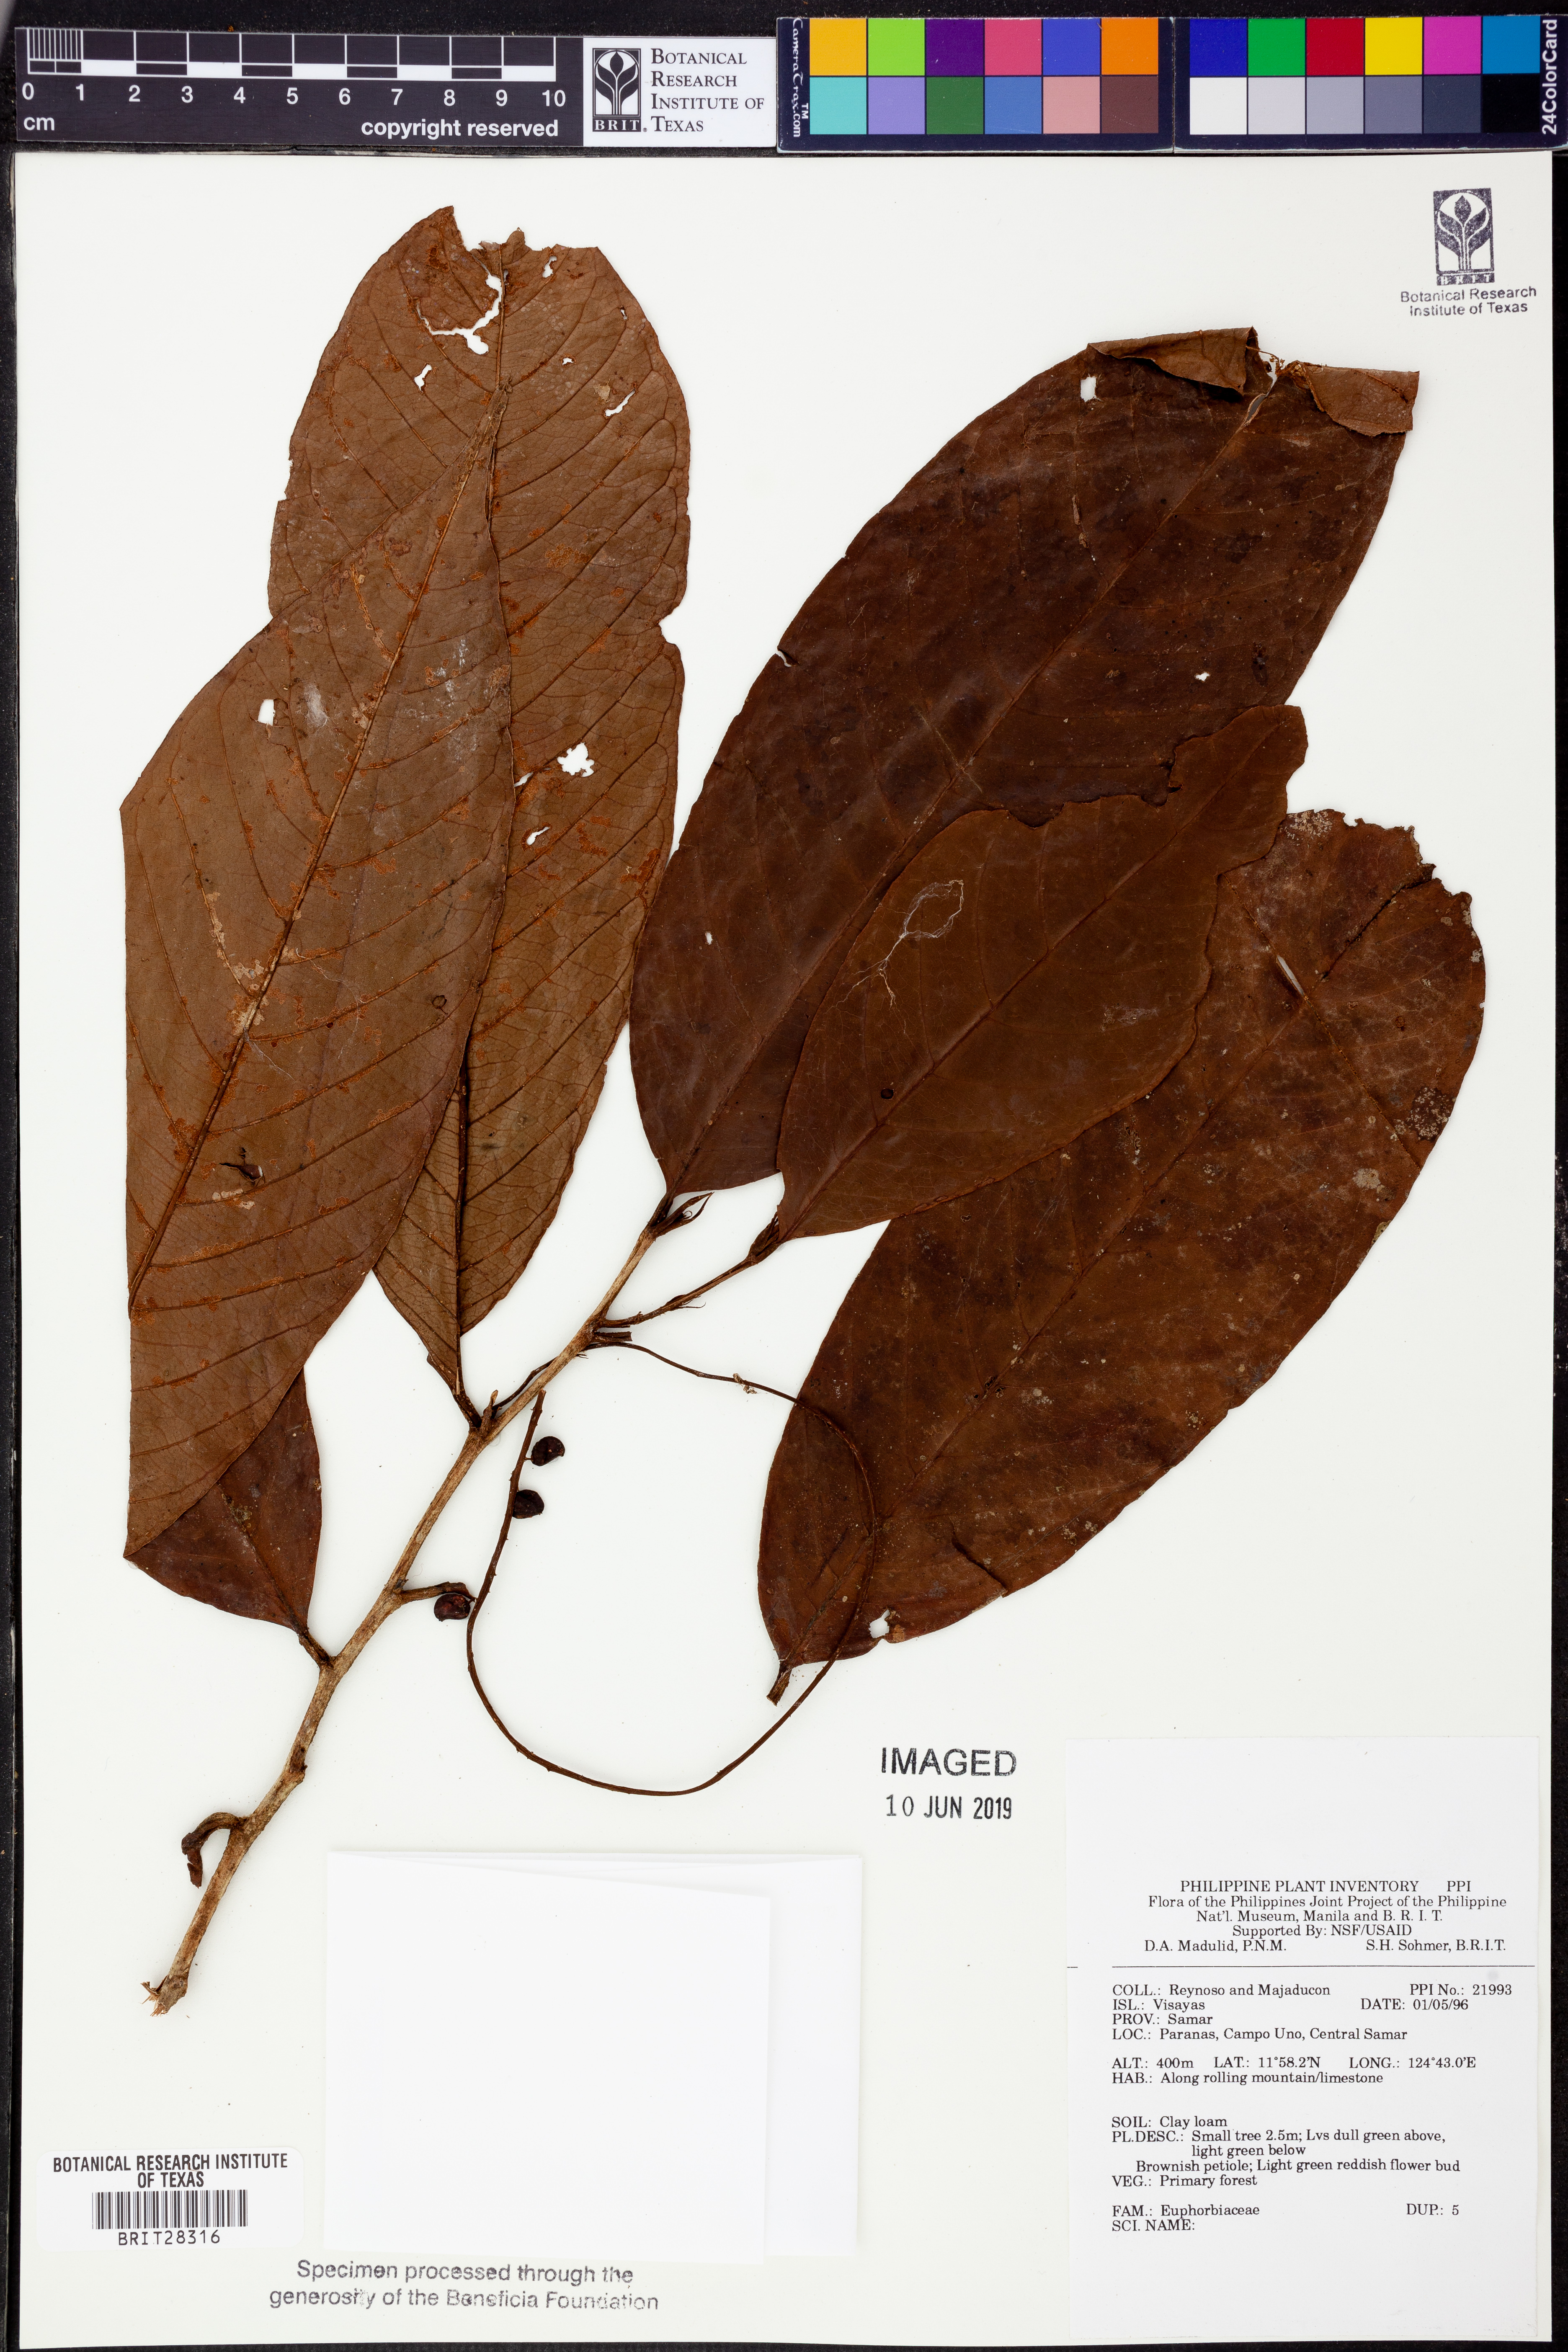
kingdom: Plantae
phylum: Tracheophyta
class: Magnoliopsida
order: Malpighiales
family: Euphorbiaceae
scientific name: Euphorbiaceae
